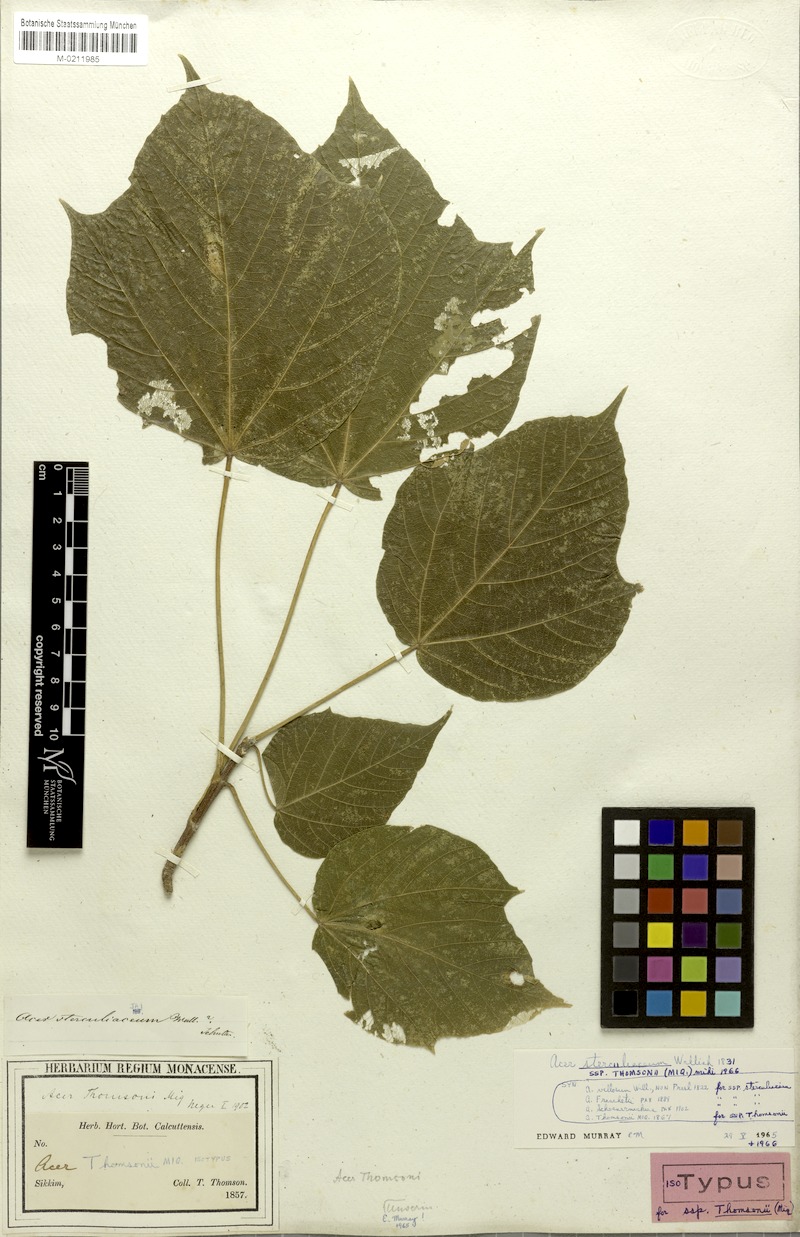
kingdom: Plantae
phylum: Tracheophyta
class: Magnoliopsida
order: Sapindales
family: Sapindaceae
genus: Acer
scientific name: Acer thomsonii
